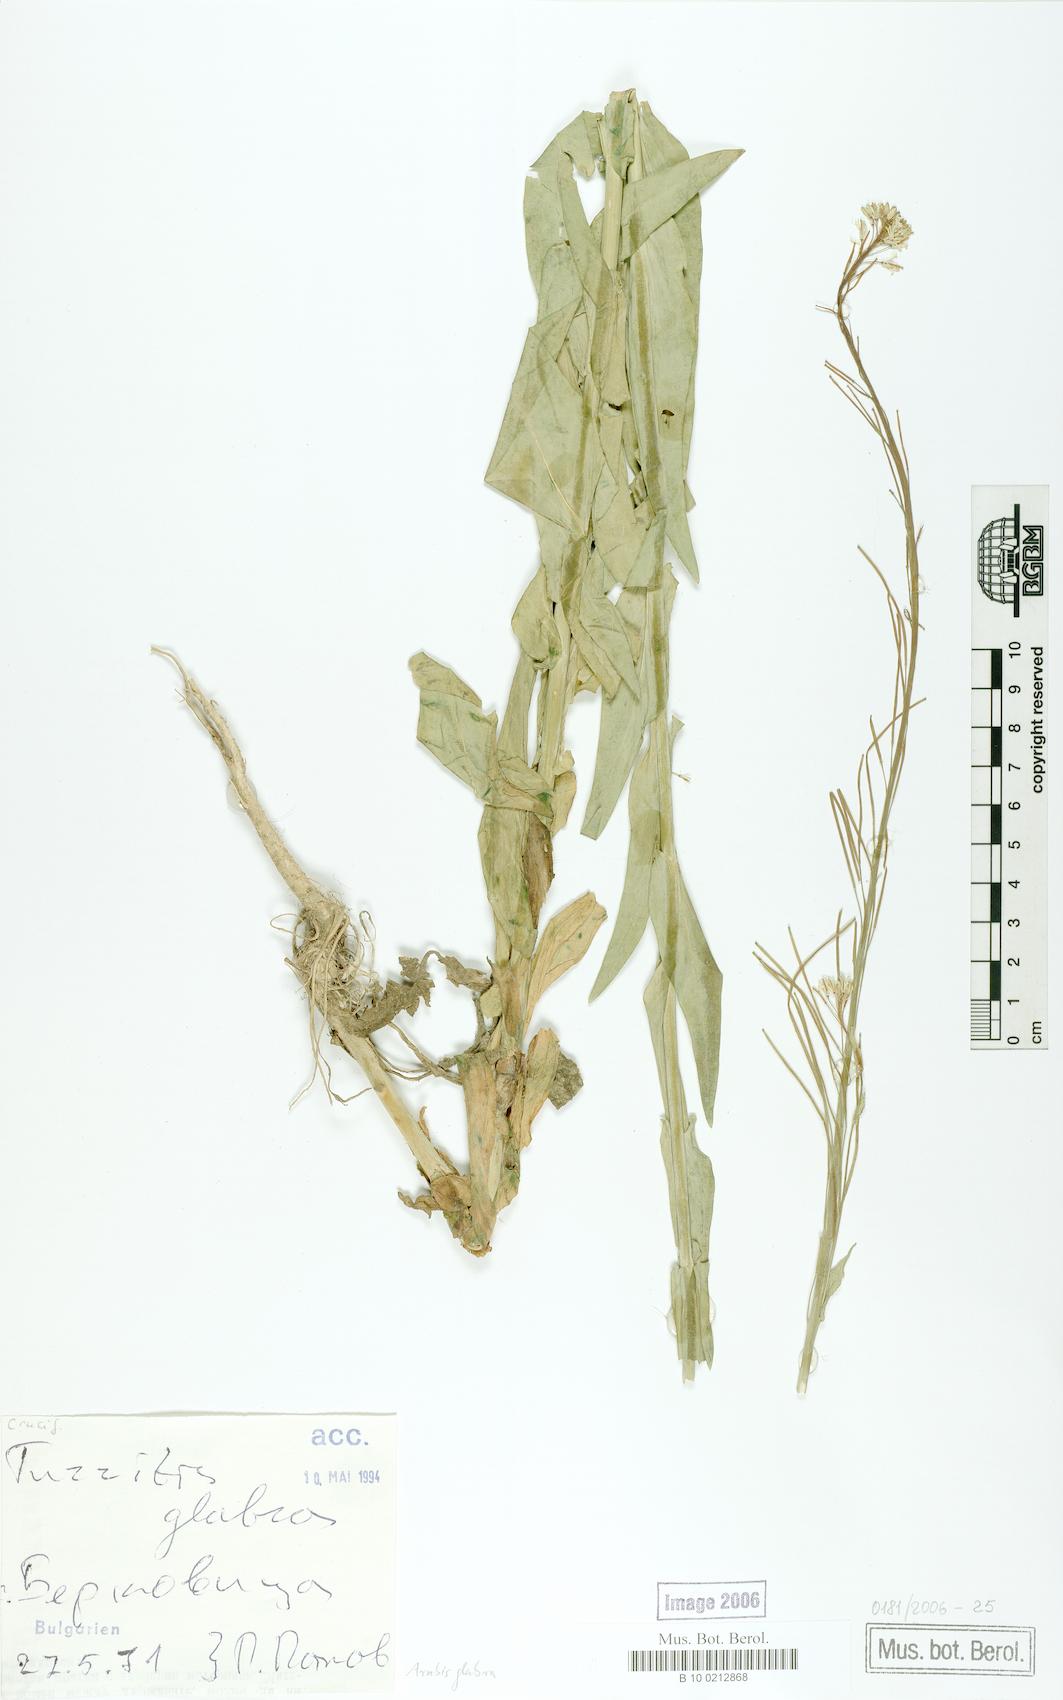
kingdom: Plantae
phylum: Tracheophyta
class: Magnoliopsida
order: Brassicales
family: Brassicaceae
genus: Turritis
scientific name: Turritis glabra
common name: Tower rockcress
